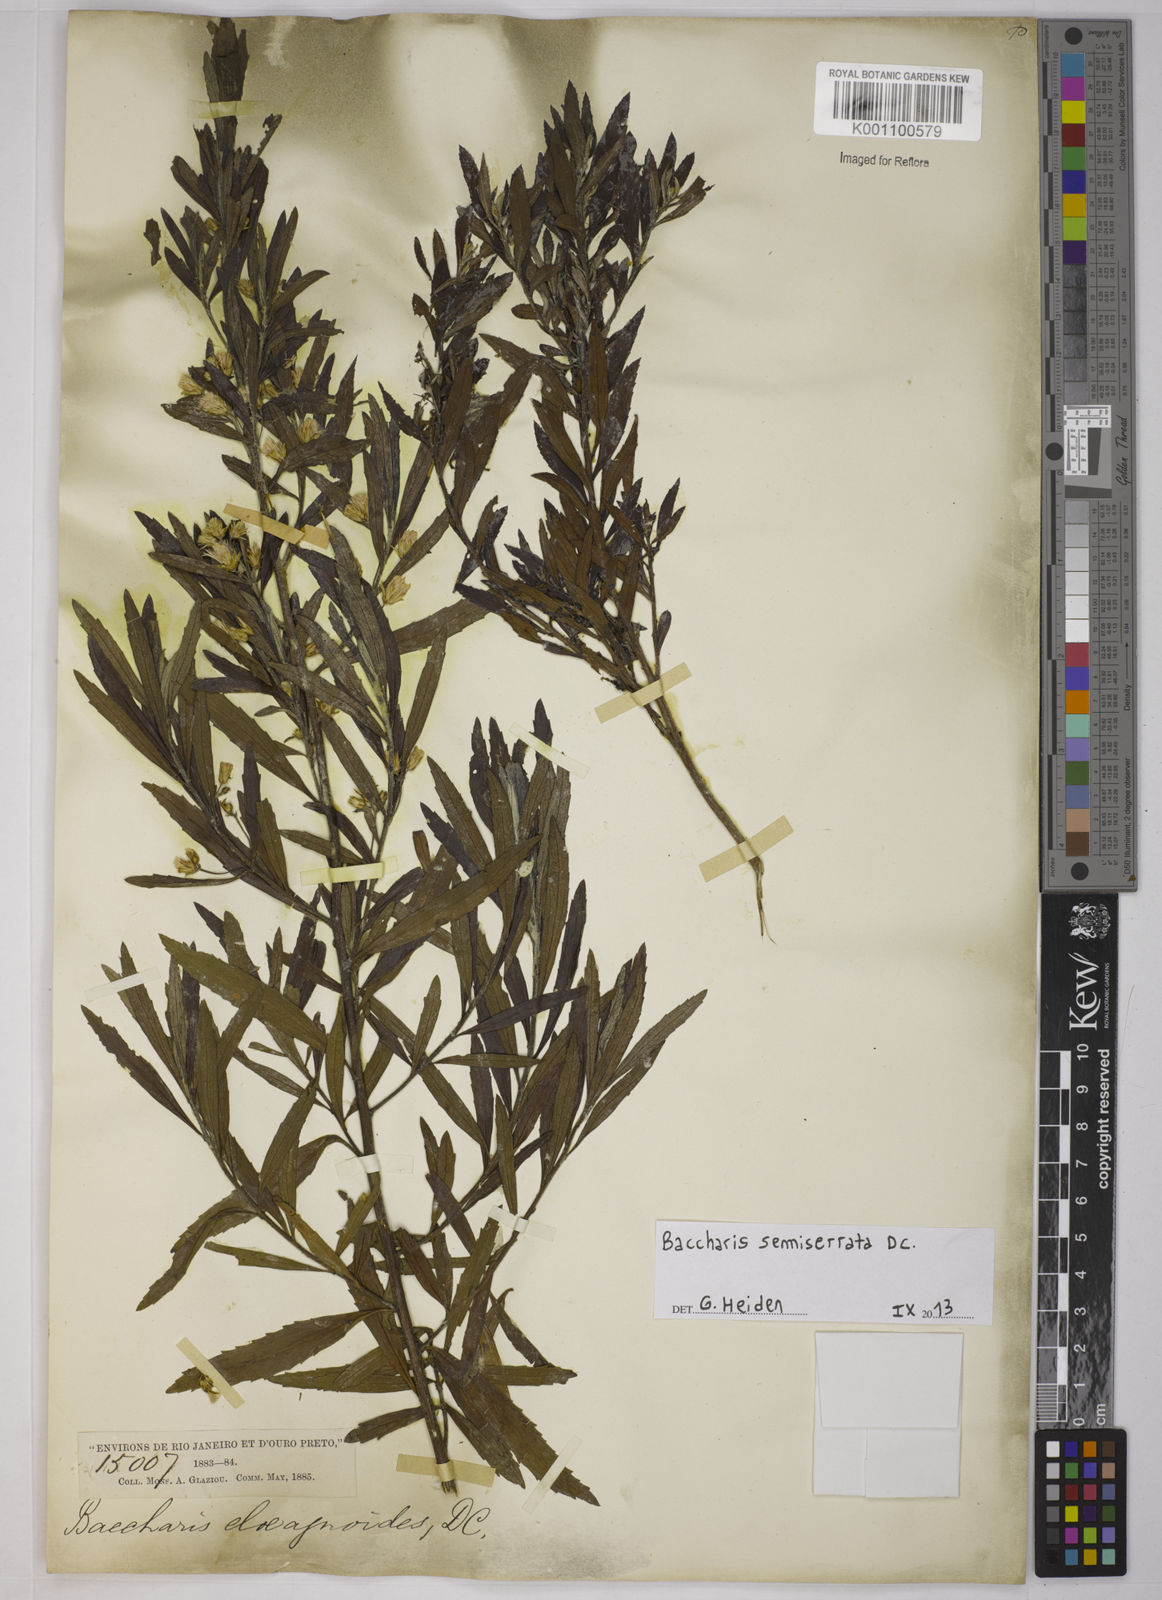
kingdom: Plantae
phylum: Tracheophyta
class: Magnoliopsida
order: Asterales
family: Asteraceae
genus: Baccharis
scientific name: Baccharis gnidiifolia
